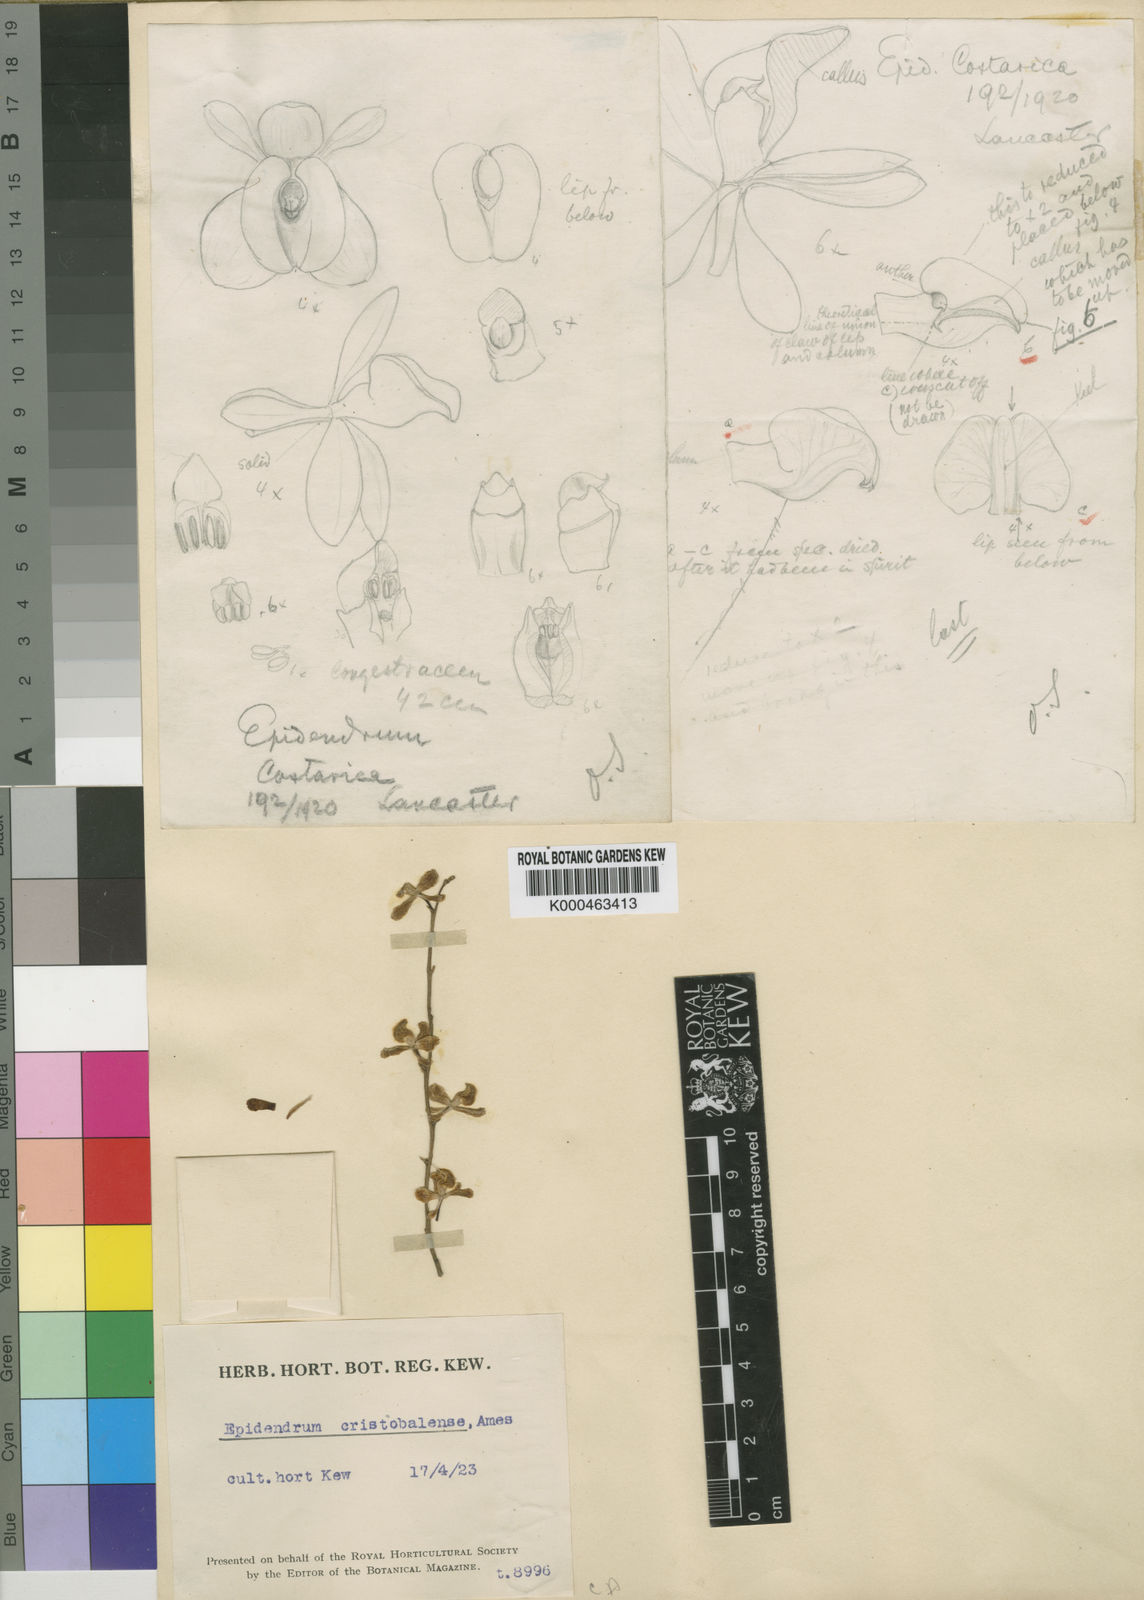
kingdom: Plantae
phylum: Tracheophyta
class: Liliopsida
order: Asparagales
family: Orchidaceae
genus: Epidendrum
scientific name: Epidendrum laucheanum
